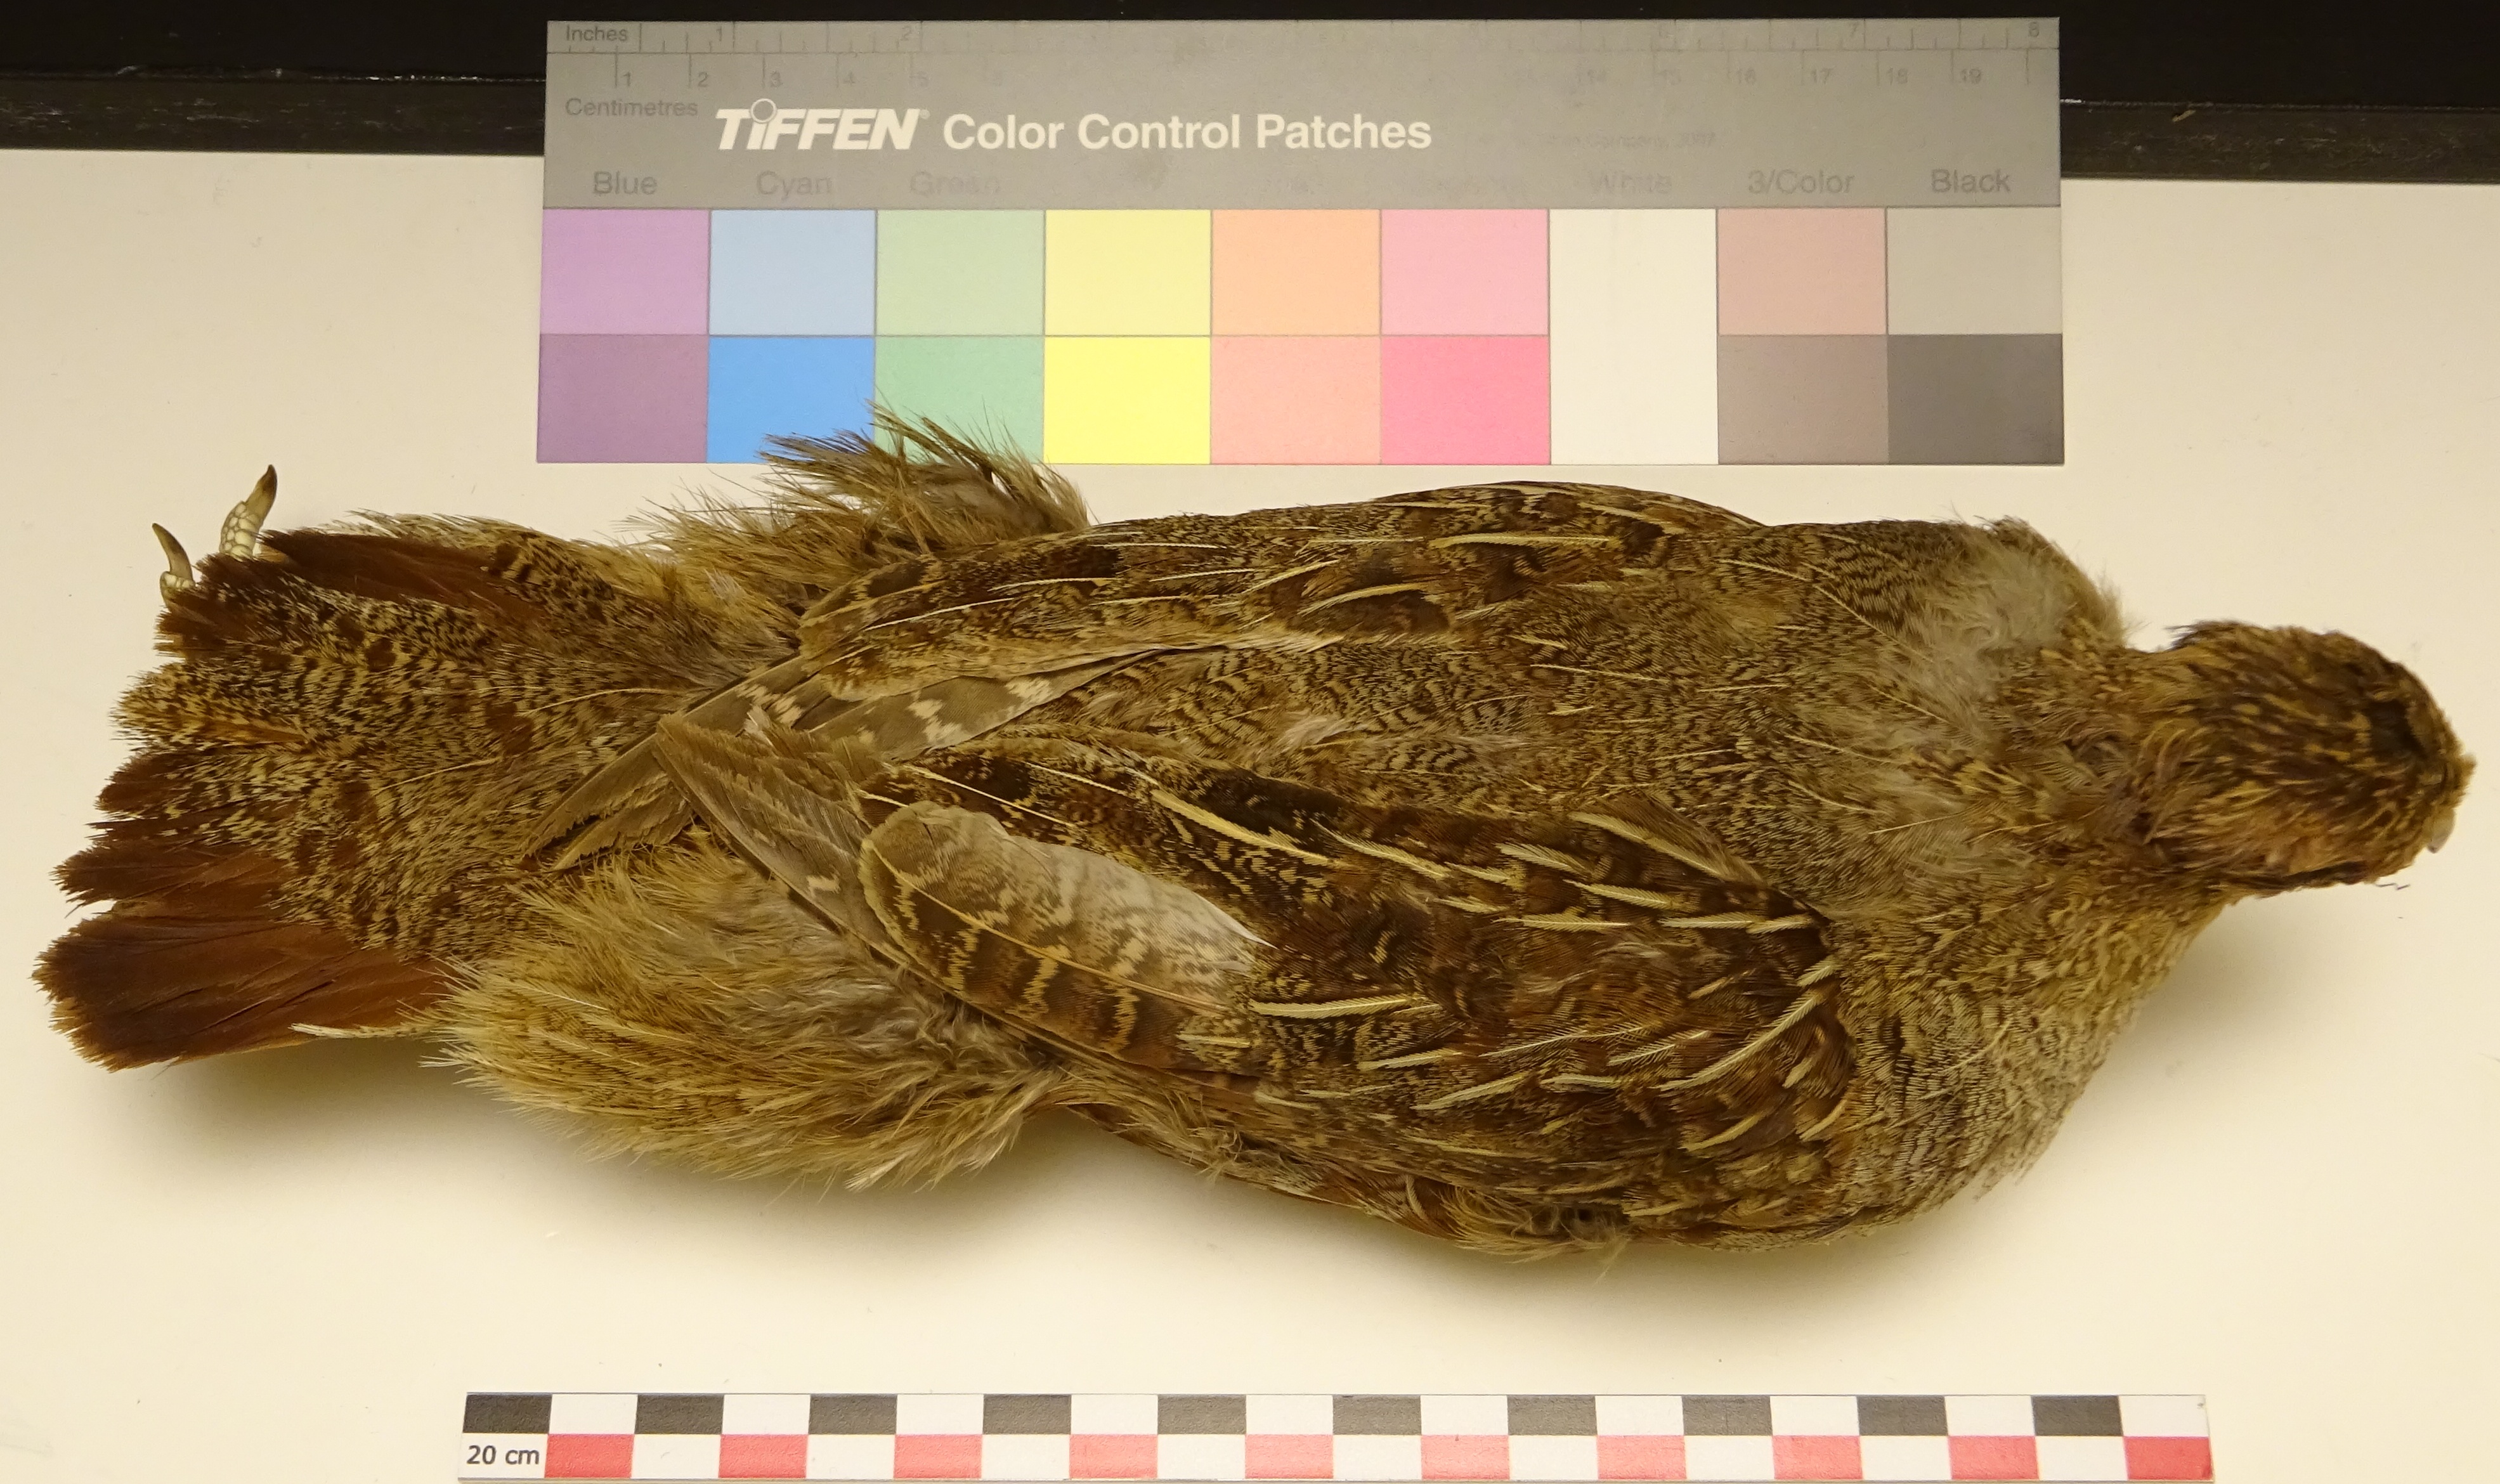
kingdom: Animalia
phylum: Chordata
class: Aves
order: Galliformes
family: Phasianidae
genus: Perdix
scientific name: Perdix perdix
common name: Grey partridge
